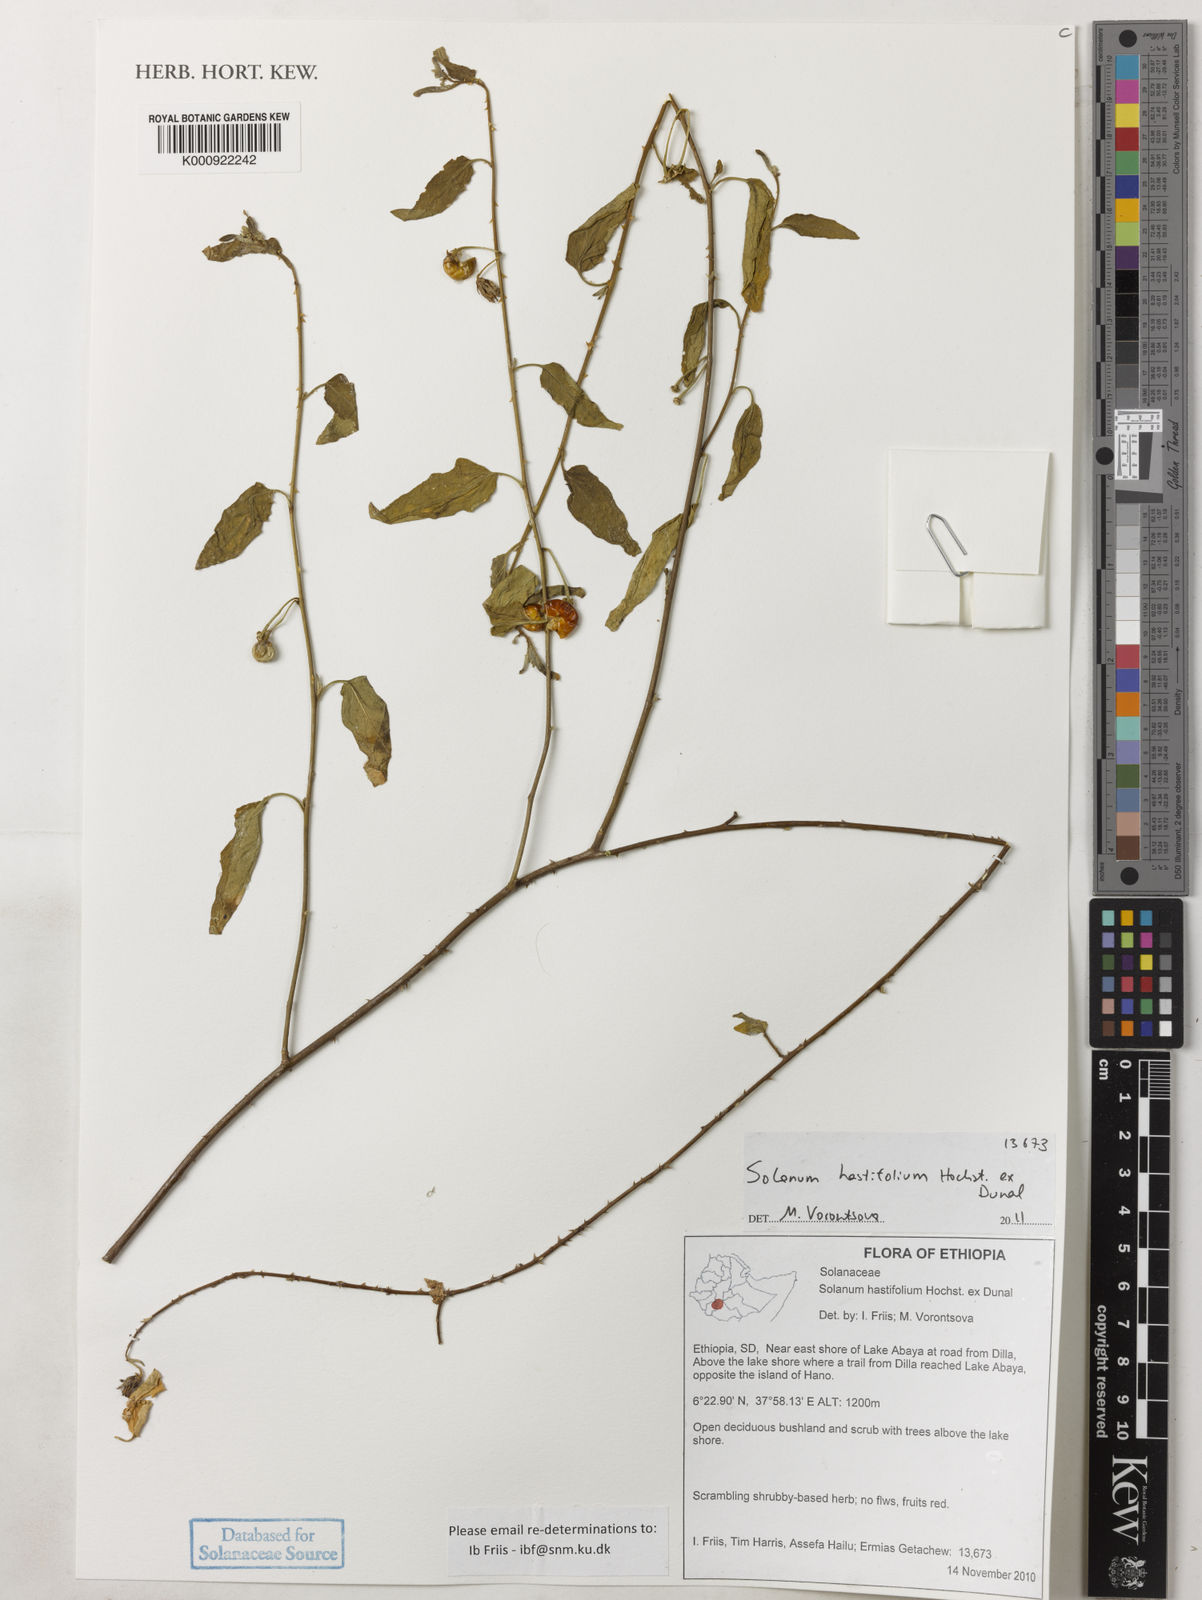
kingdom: Plantae
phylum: Tracheophyta
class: Magnoliopsida
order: Solanales
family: Solanaceae
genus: Solanum
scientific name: Solanum hastifolium
